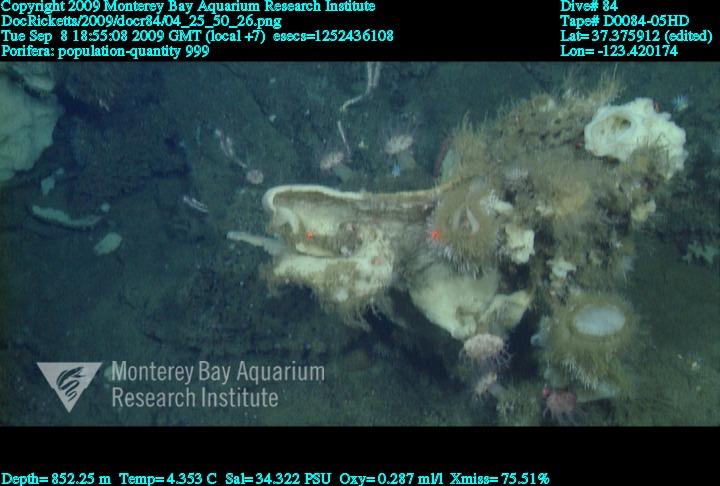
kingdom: Animalia
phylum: Porifera
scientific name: Porifera
